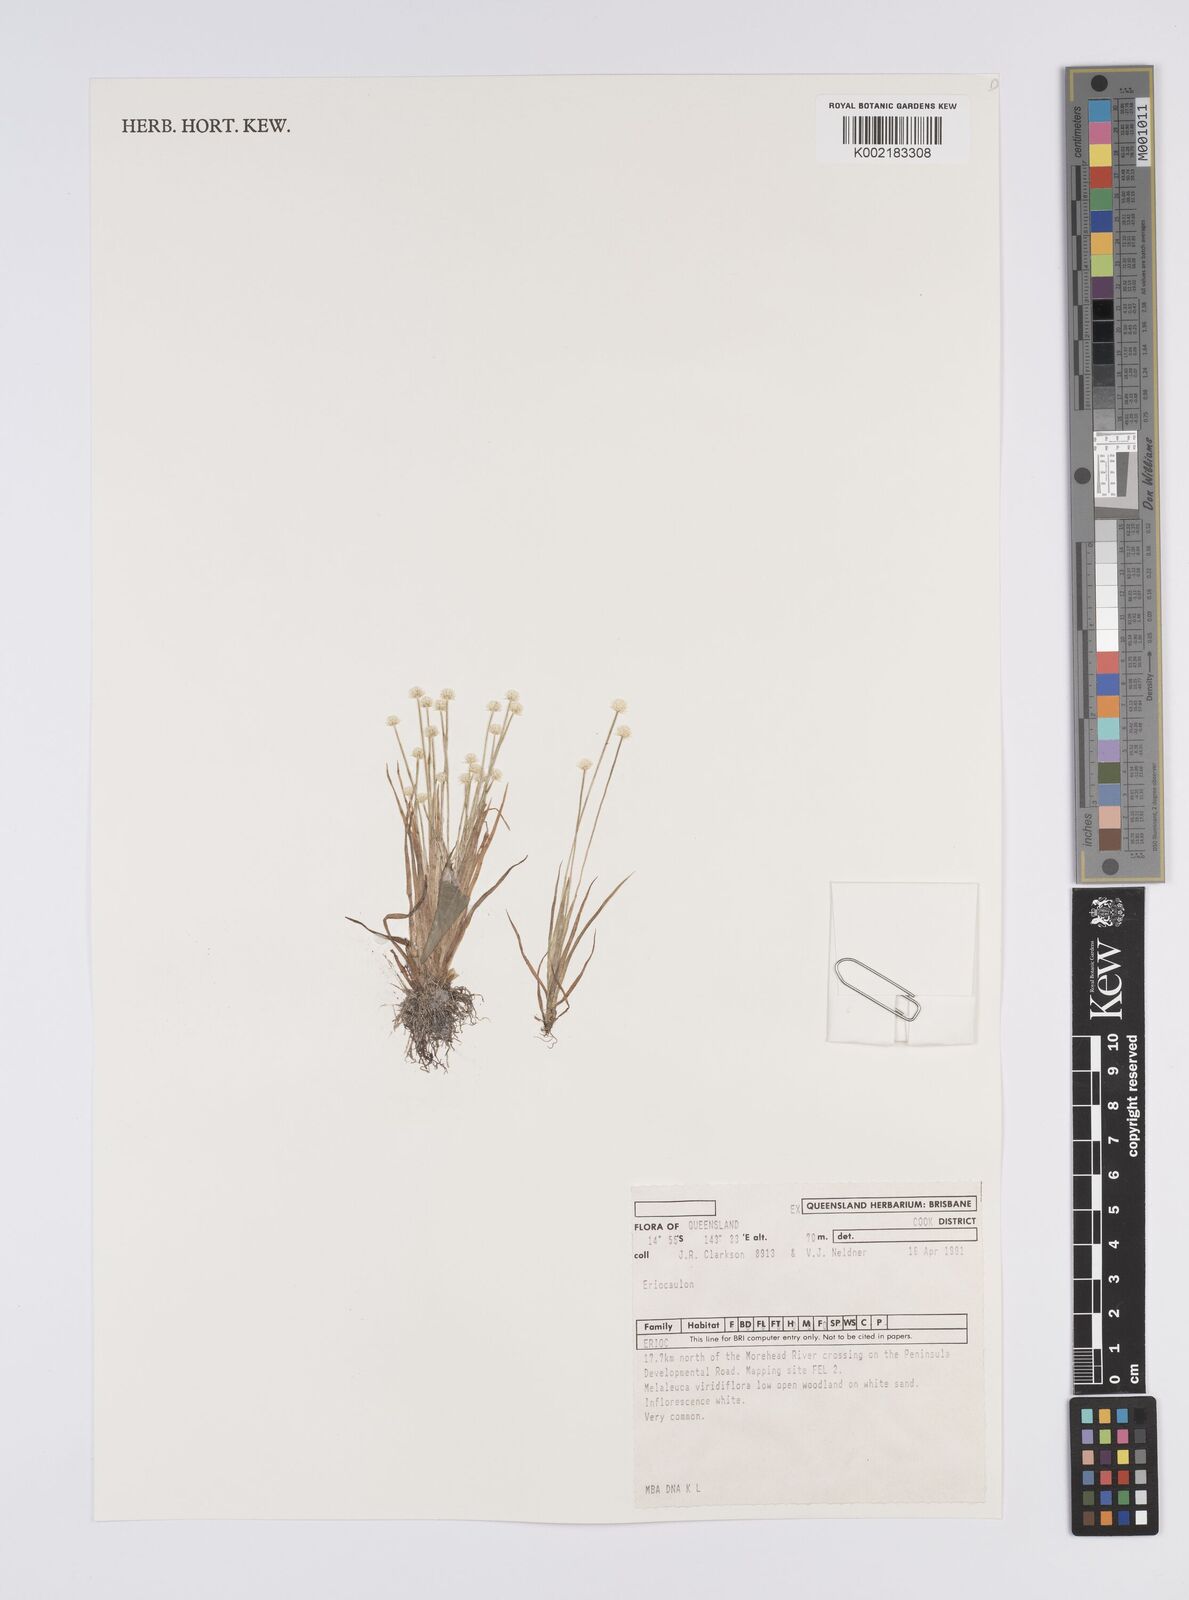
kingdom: Plantae
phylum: Tracheophyta
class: Liliopsida
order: Poales
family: Eriocaulaceae
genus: Eriocaulon
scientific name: Eriocaulon
